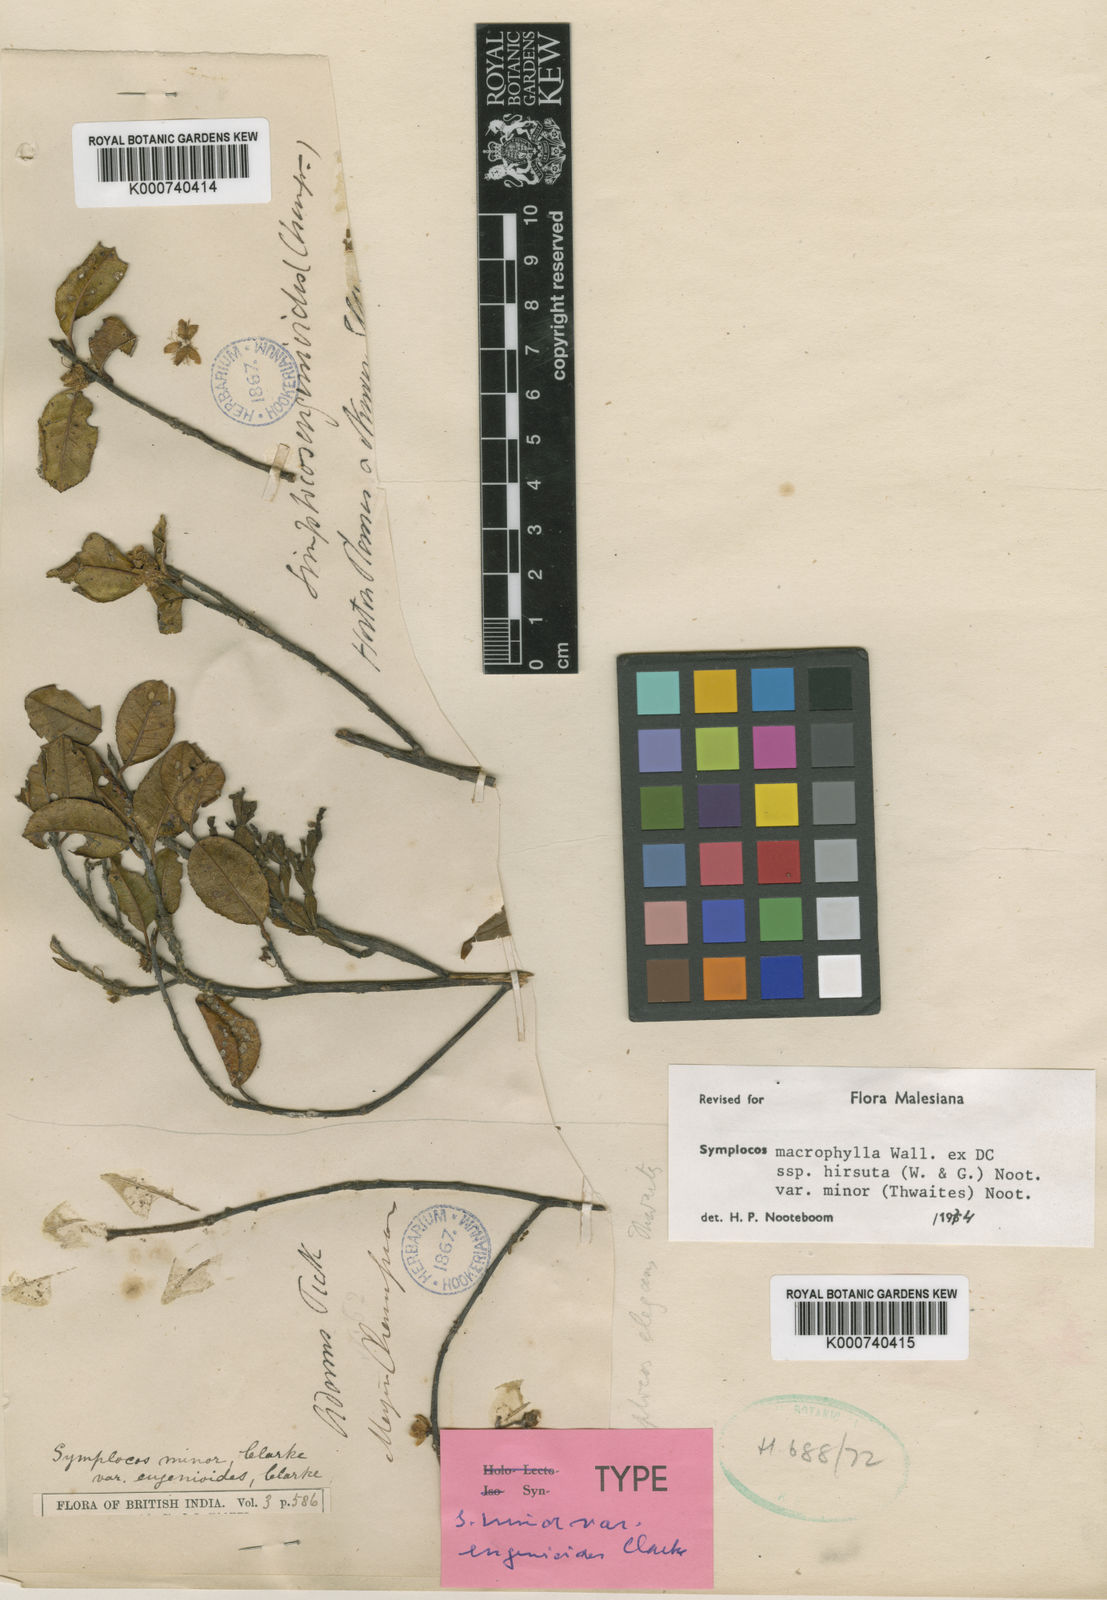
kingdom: Plantae
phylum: Tracheophyta
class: Magnoliopsida
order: Ericales
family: Symplocaceae
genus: Symplocos
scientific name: Symplocos
